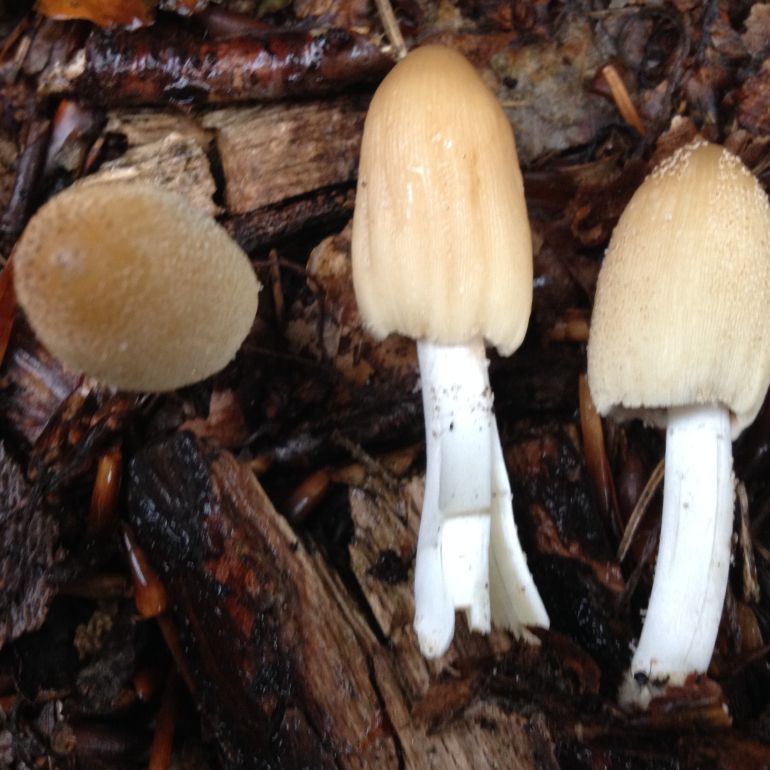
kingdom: Fungi
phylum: Basidiomycota
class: Agaricomycetes
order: Agaricales
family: Psathyrellaceae
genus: Coprinellus
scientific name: Coprinellus micaceus
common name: glimmer-blækhat
